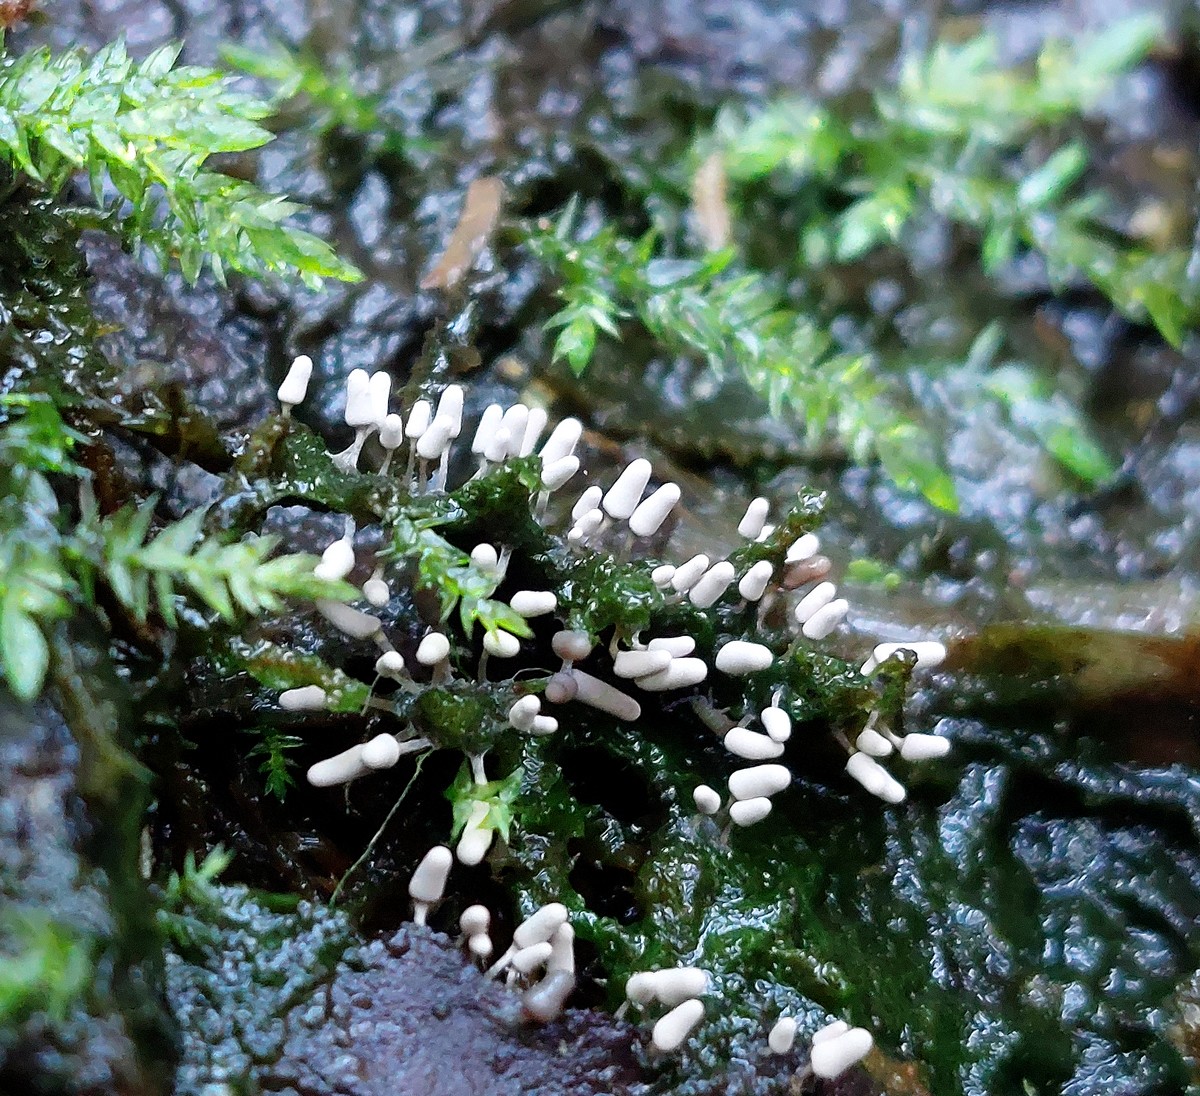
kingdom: Protozoa
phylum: Mycetozoa
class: Myxomycetes
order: Trichiales
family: Arcyriaceae
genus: Arcyria
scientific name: Arcyria cinerea
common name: White carnival candy slime mold
